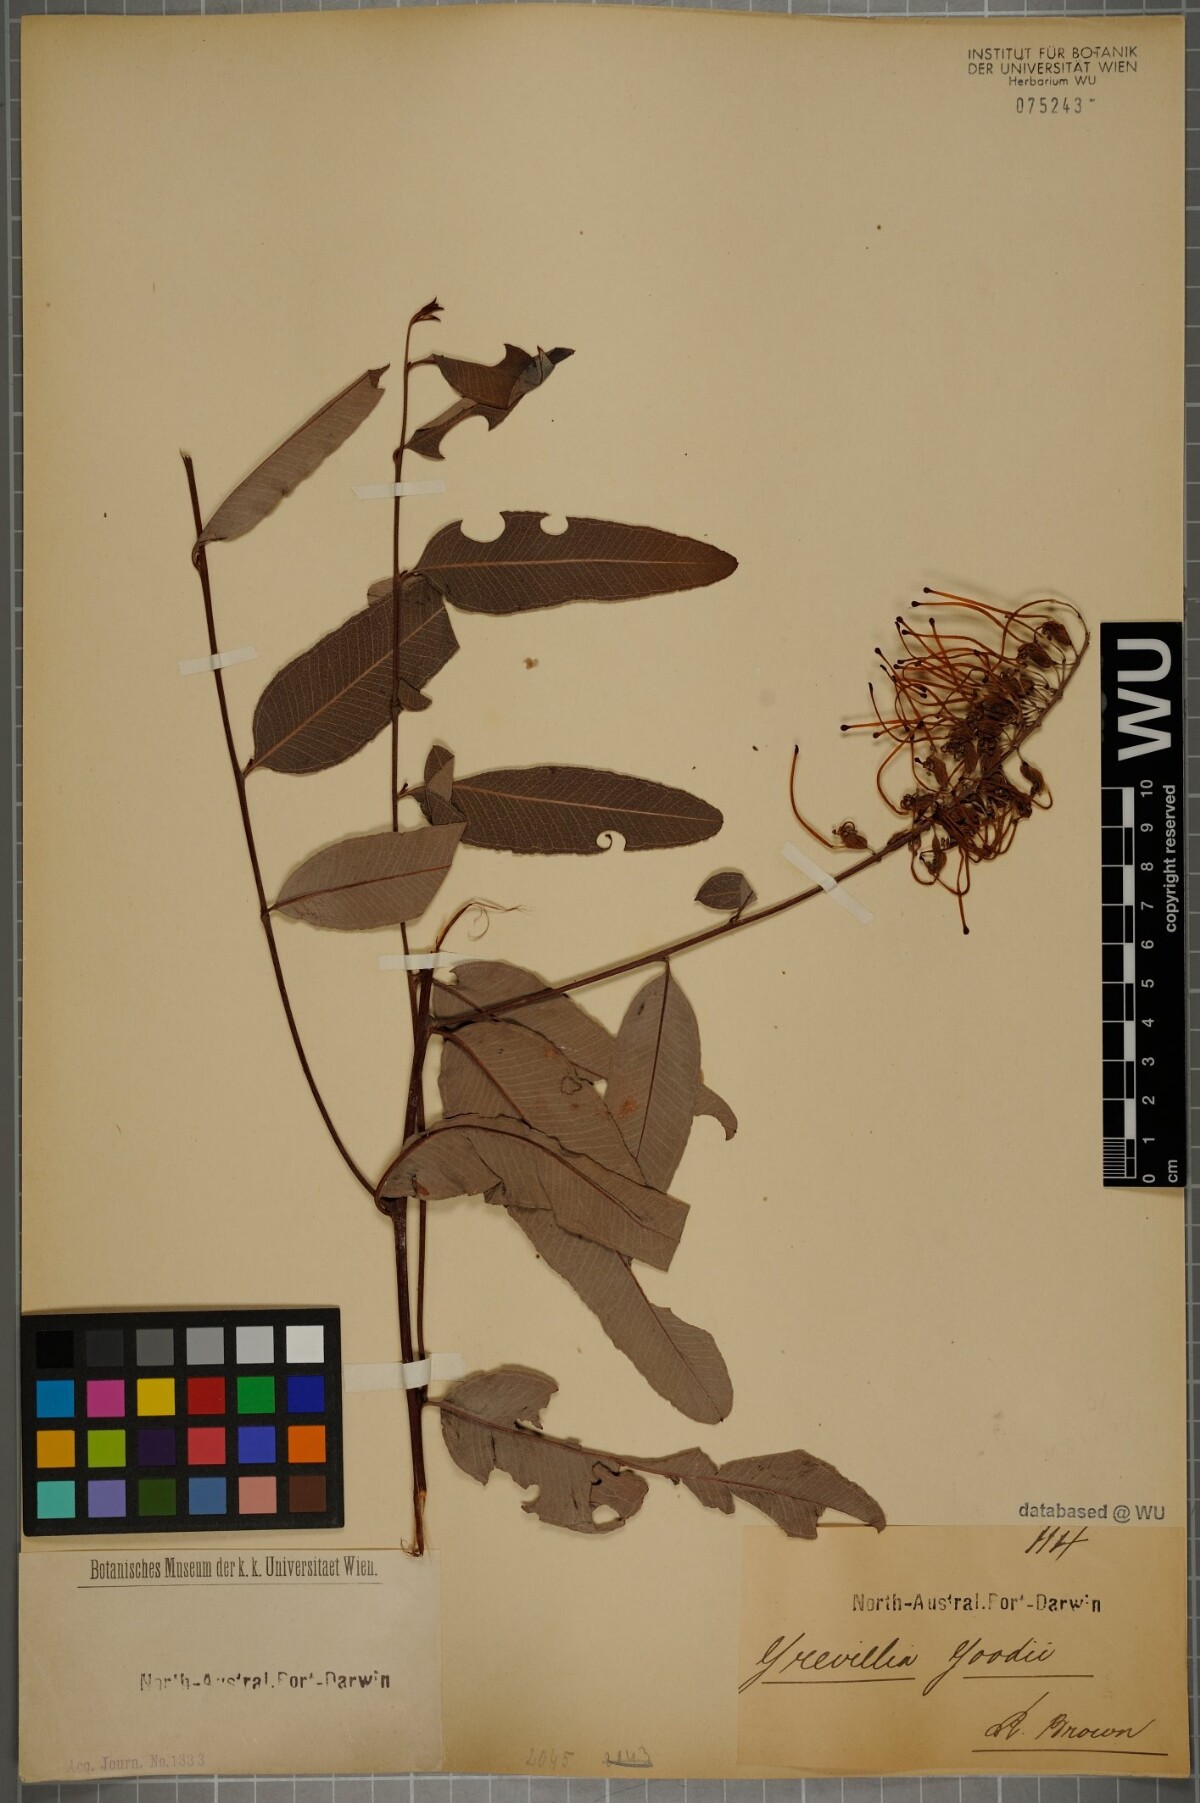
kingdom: Plantae
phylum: Tracheophyta
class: Magnoliopsida
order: Proteales
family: Proteaceae
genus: Grevillea
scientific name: Grevillea goodii
